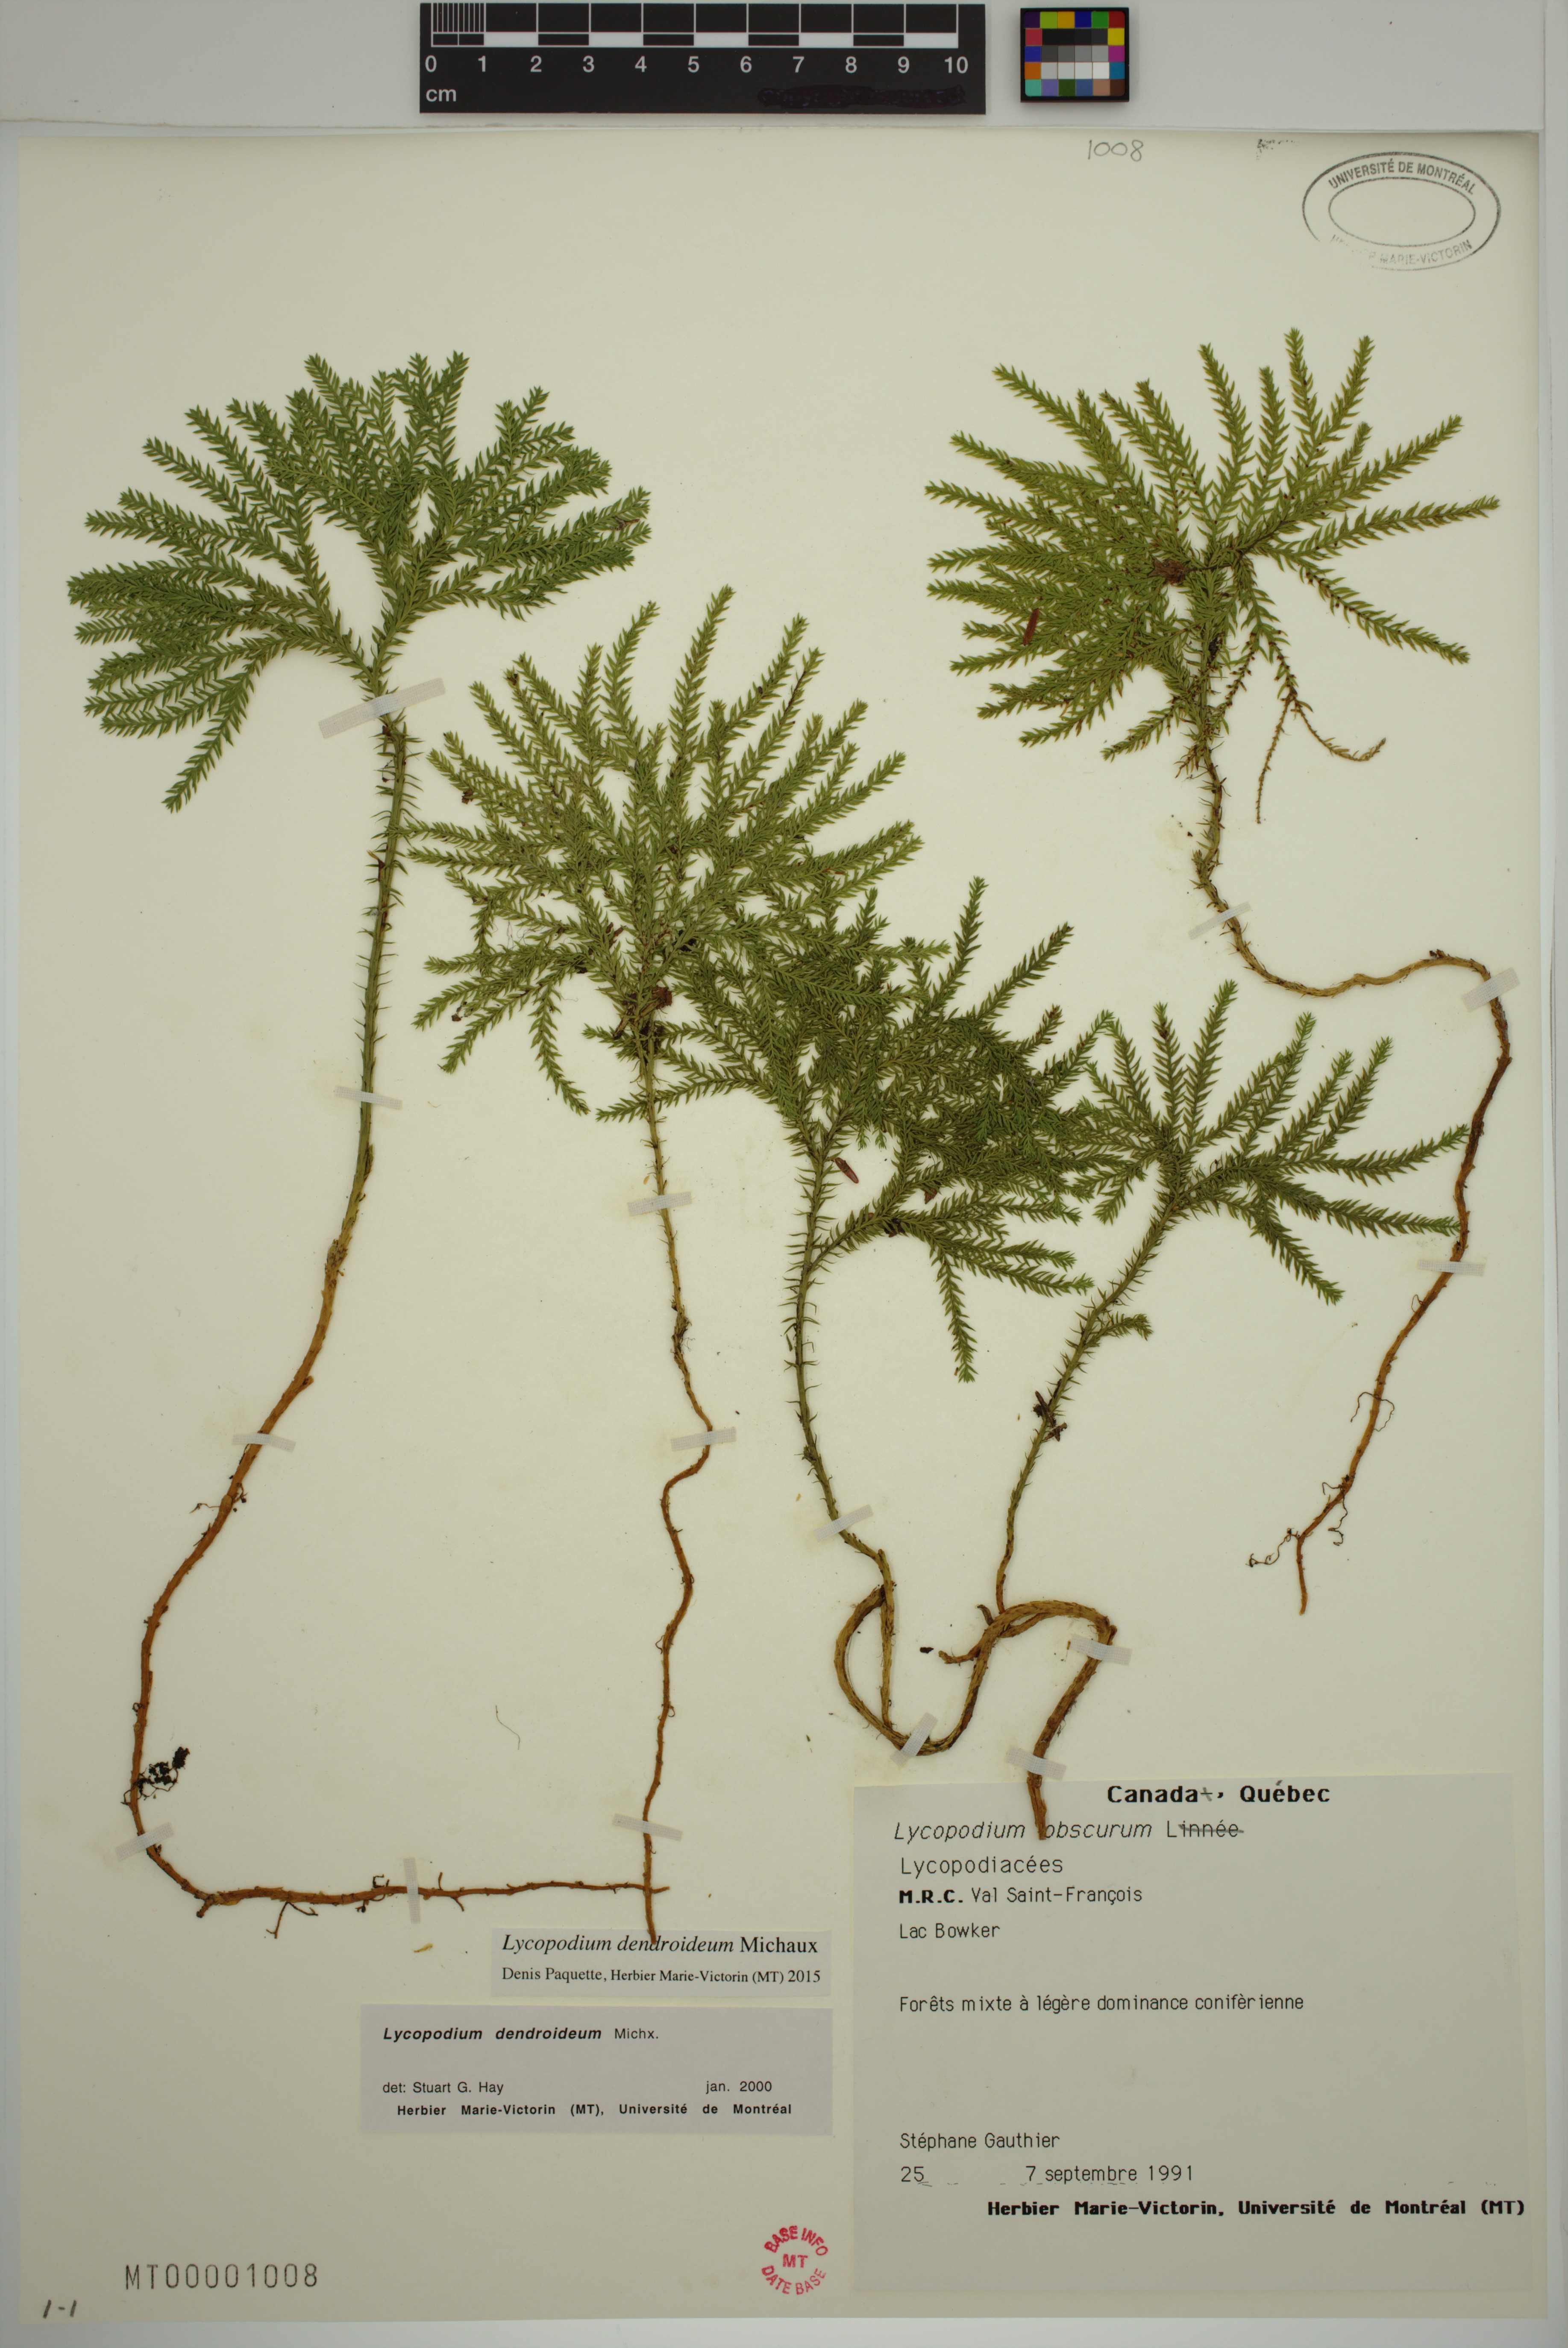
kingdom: Plantae
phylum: Tracheophyta
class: Lycopodiopsida
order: Lycopodiales
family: Lycopodiaceae
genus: Dendrolycopodium
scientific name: Dendrolycopodium obscurum
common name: Common ground-pine
